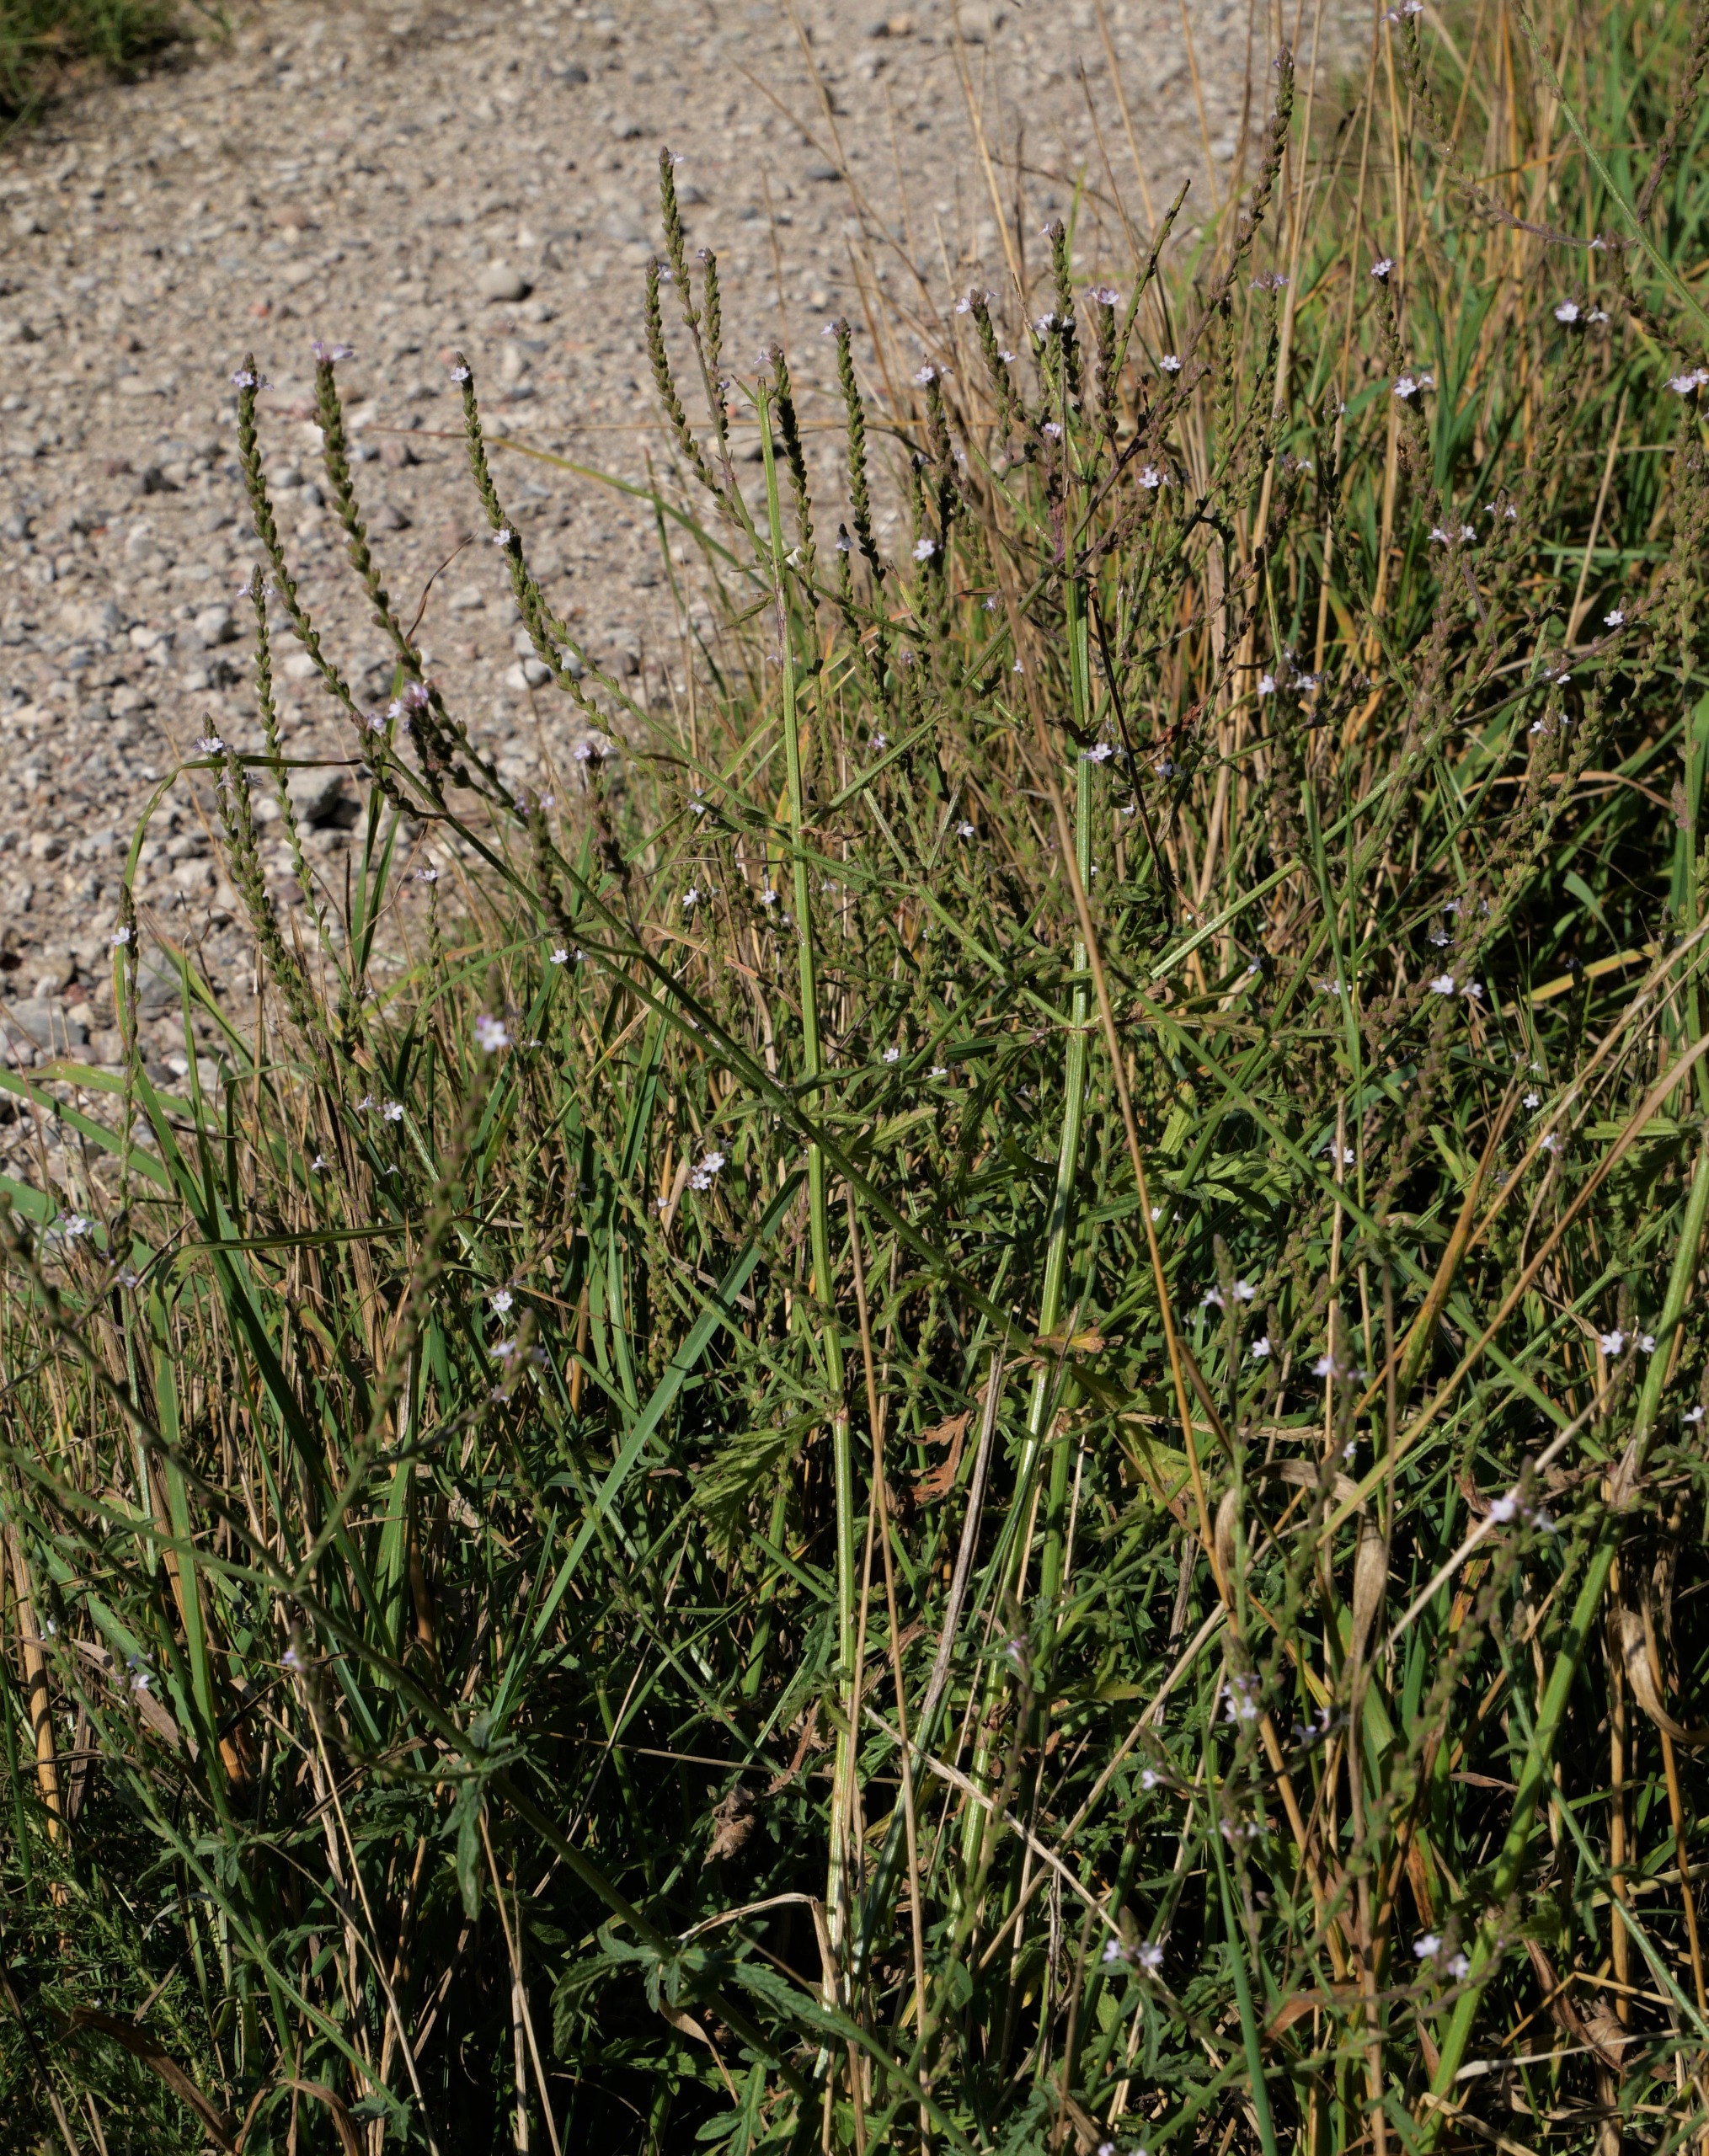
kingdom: Plantae
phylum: Tracheophyta
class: Magnoliopsida
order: Lamiales
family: Verbenaceae
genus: Verbena
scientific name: Verbena officinalis
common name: Læge-jernurt
